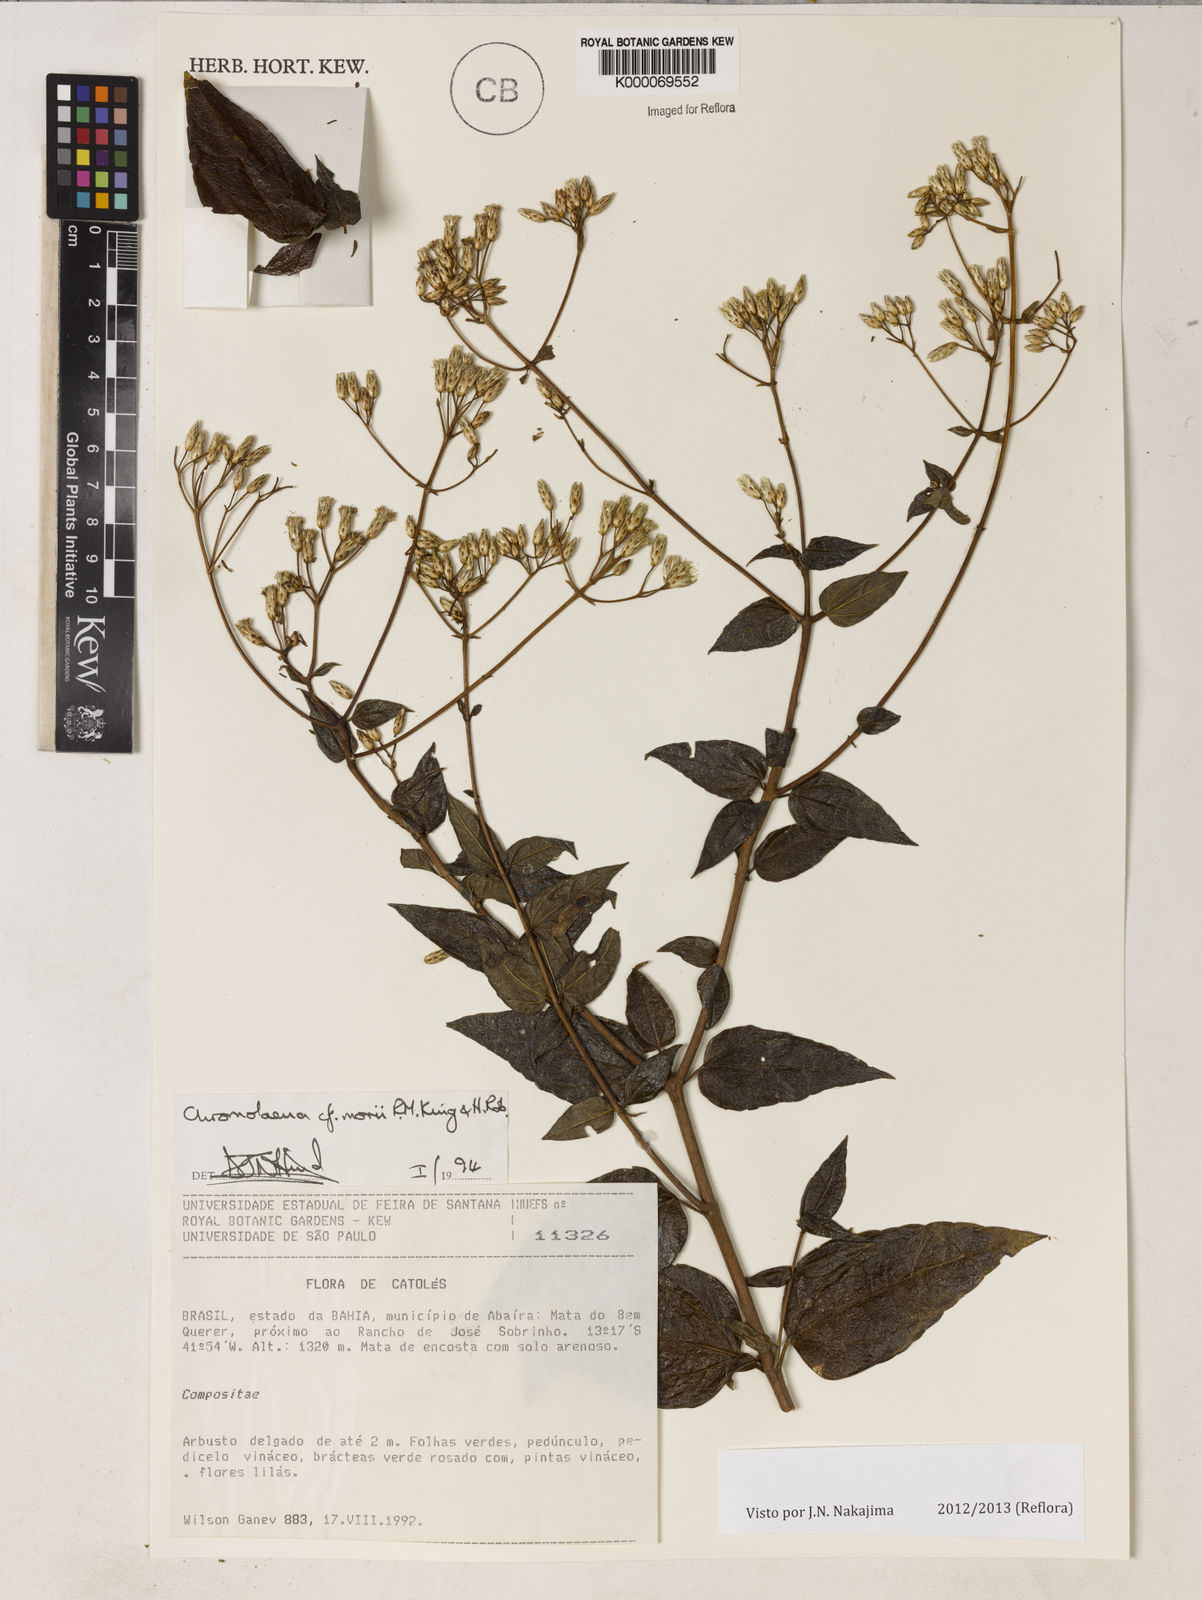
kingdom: Plantae
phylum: Tracheophyta
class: Magnoliopsida
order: Asterales
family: Asteraceae
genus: Chromolaena
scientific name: Chromolaena morii
